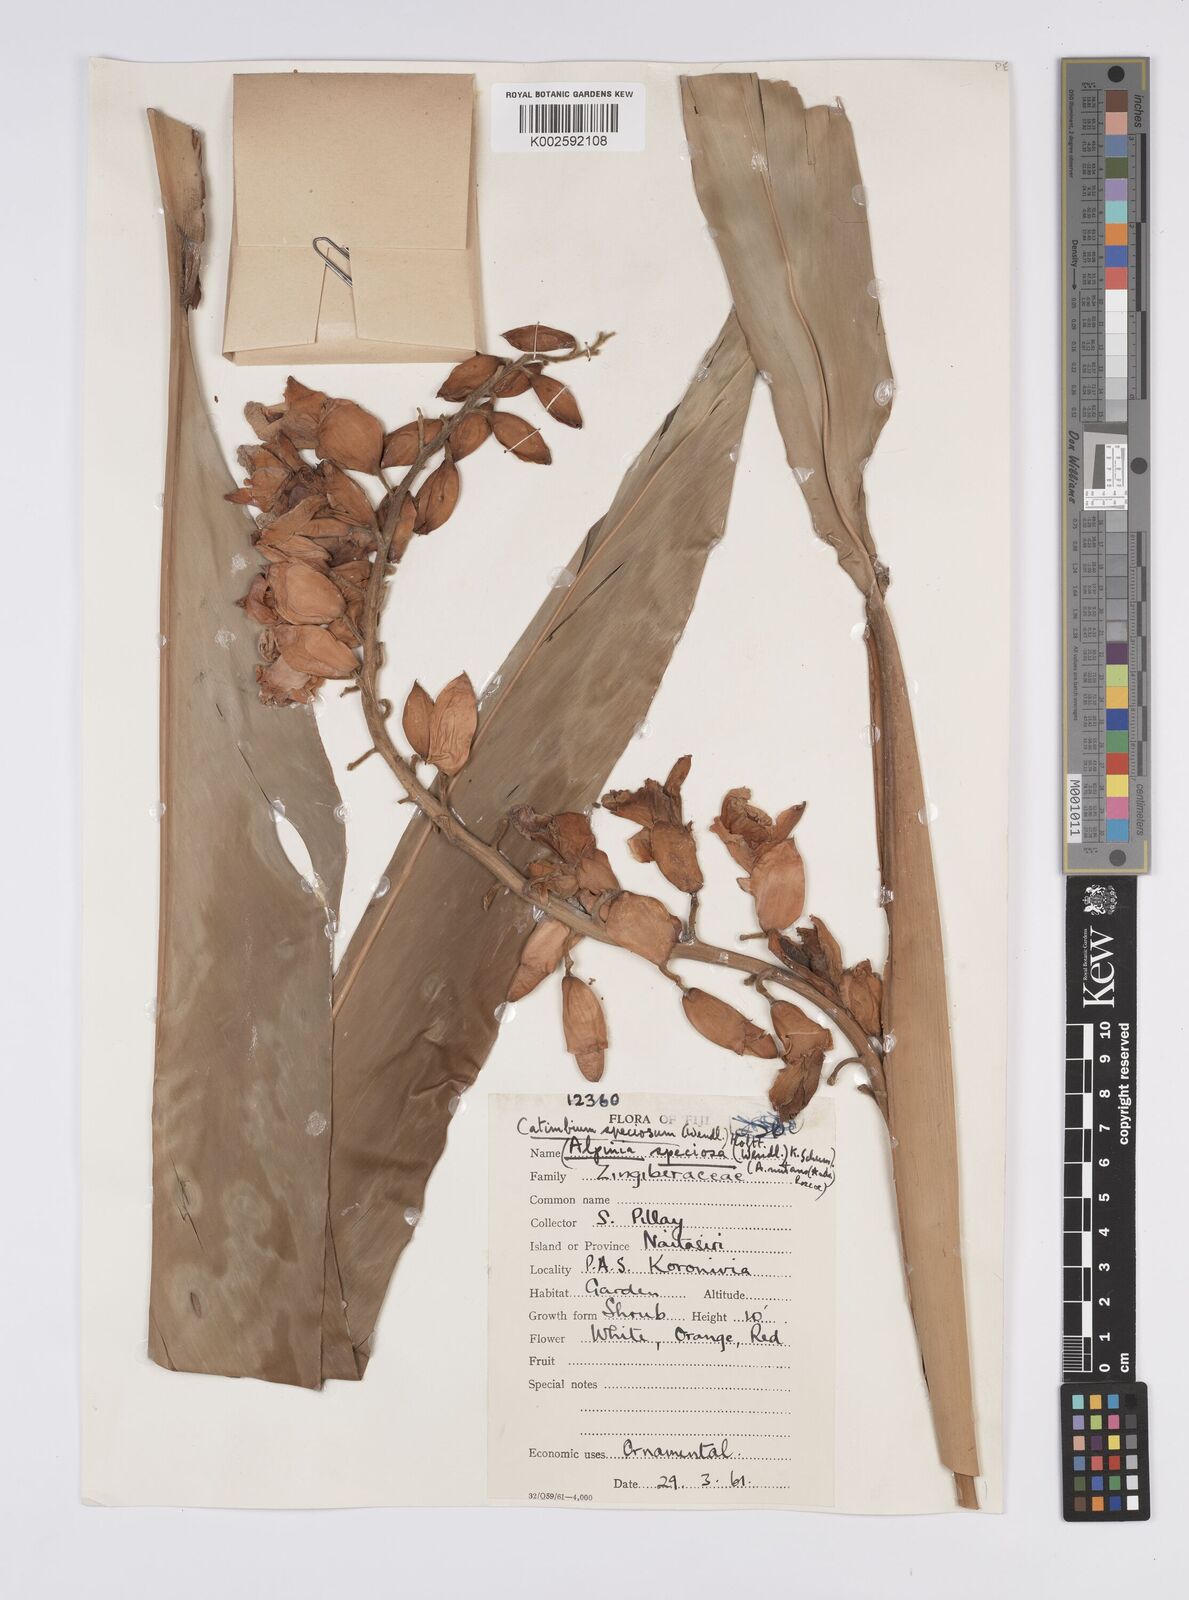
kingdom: Plantae
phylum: Tracheophyta
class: Liliopsida
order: Zingiberales
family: Zingiberaceae
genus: Alpinia
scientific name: Alpinia zerumbet
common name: Shellplant
